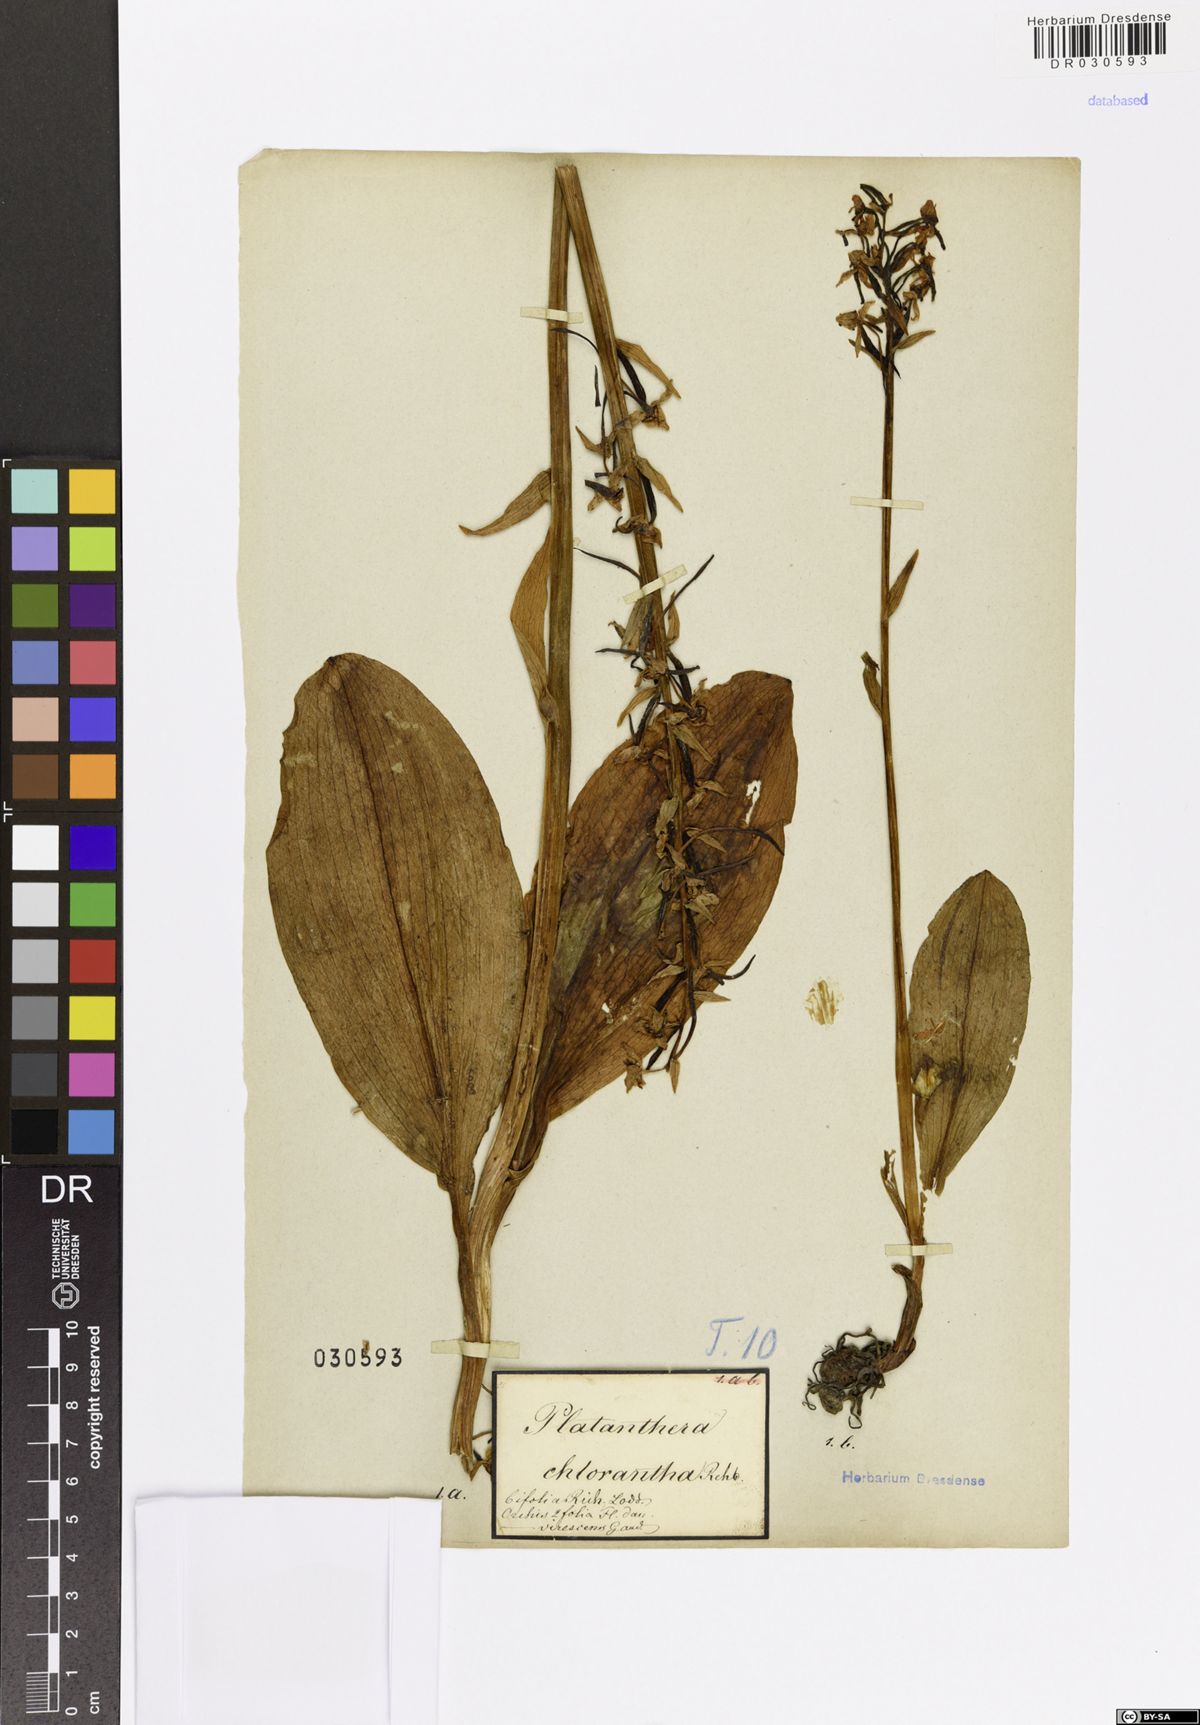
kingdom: Plantae
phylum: Tracheophyta
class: Liliopsida
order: Asparagales
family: Orchidaceae
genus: Platanthera
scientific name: Platanthera chlorantha
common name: Greater butterfly-orchid
